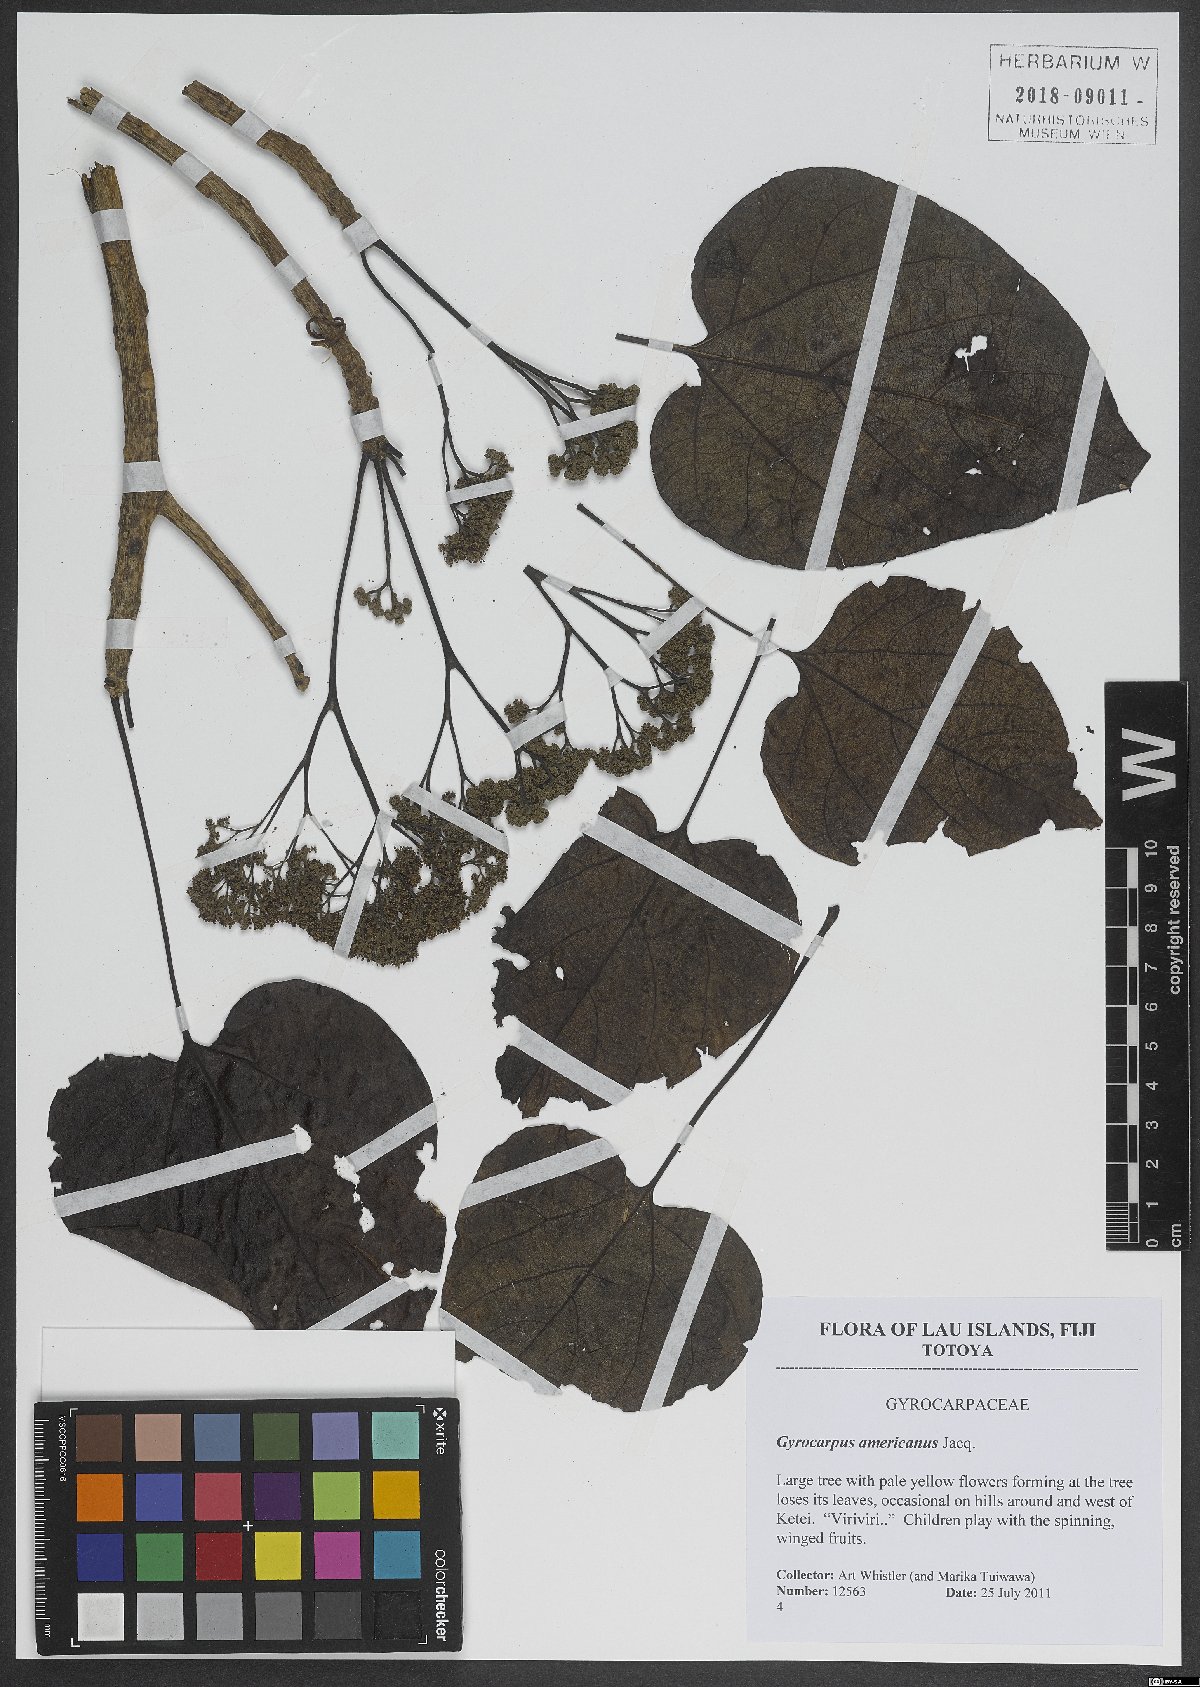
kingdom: Plantae
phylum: Tracheophyta
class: Magnoliopsida
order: Laurales
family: Hernandiaceae
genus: Gyrocarpus
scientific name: Gyrocarpus americanus
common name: Gyro damson
